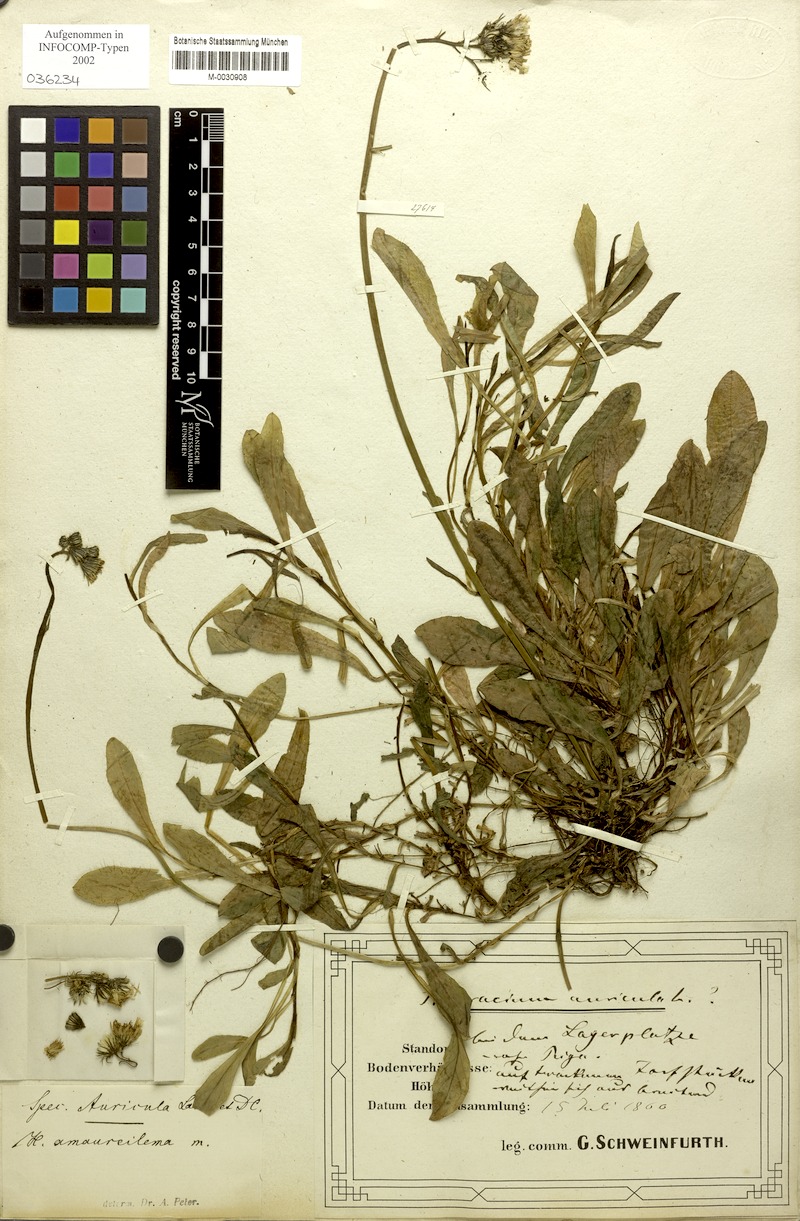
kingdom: Plantae
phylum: Tracheophyta
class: Magnoliopsida
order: Asterales
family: Asteraceae
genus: Pilosella
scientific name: Pilosella lactucella
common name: Glaucous fox-and-cubs
